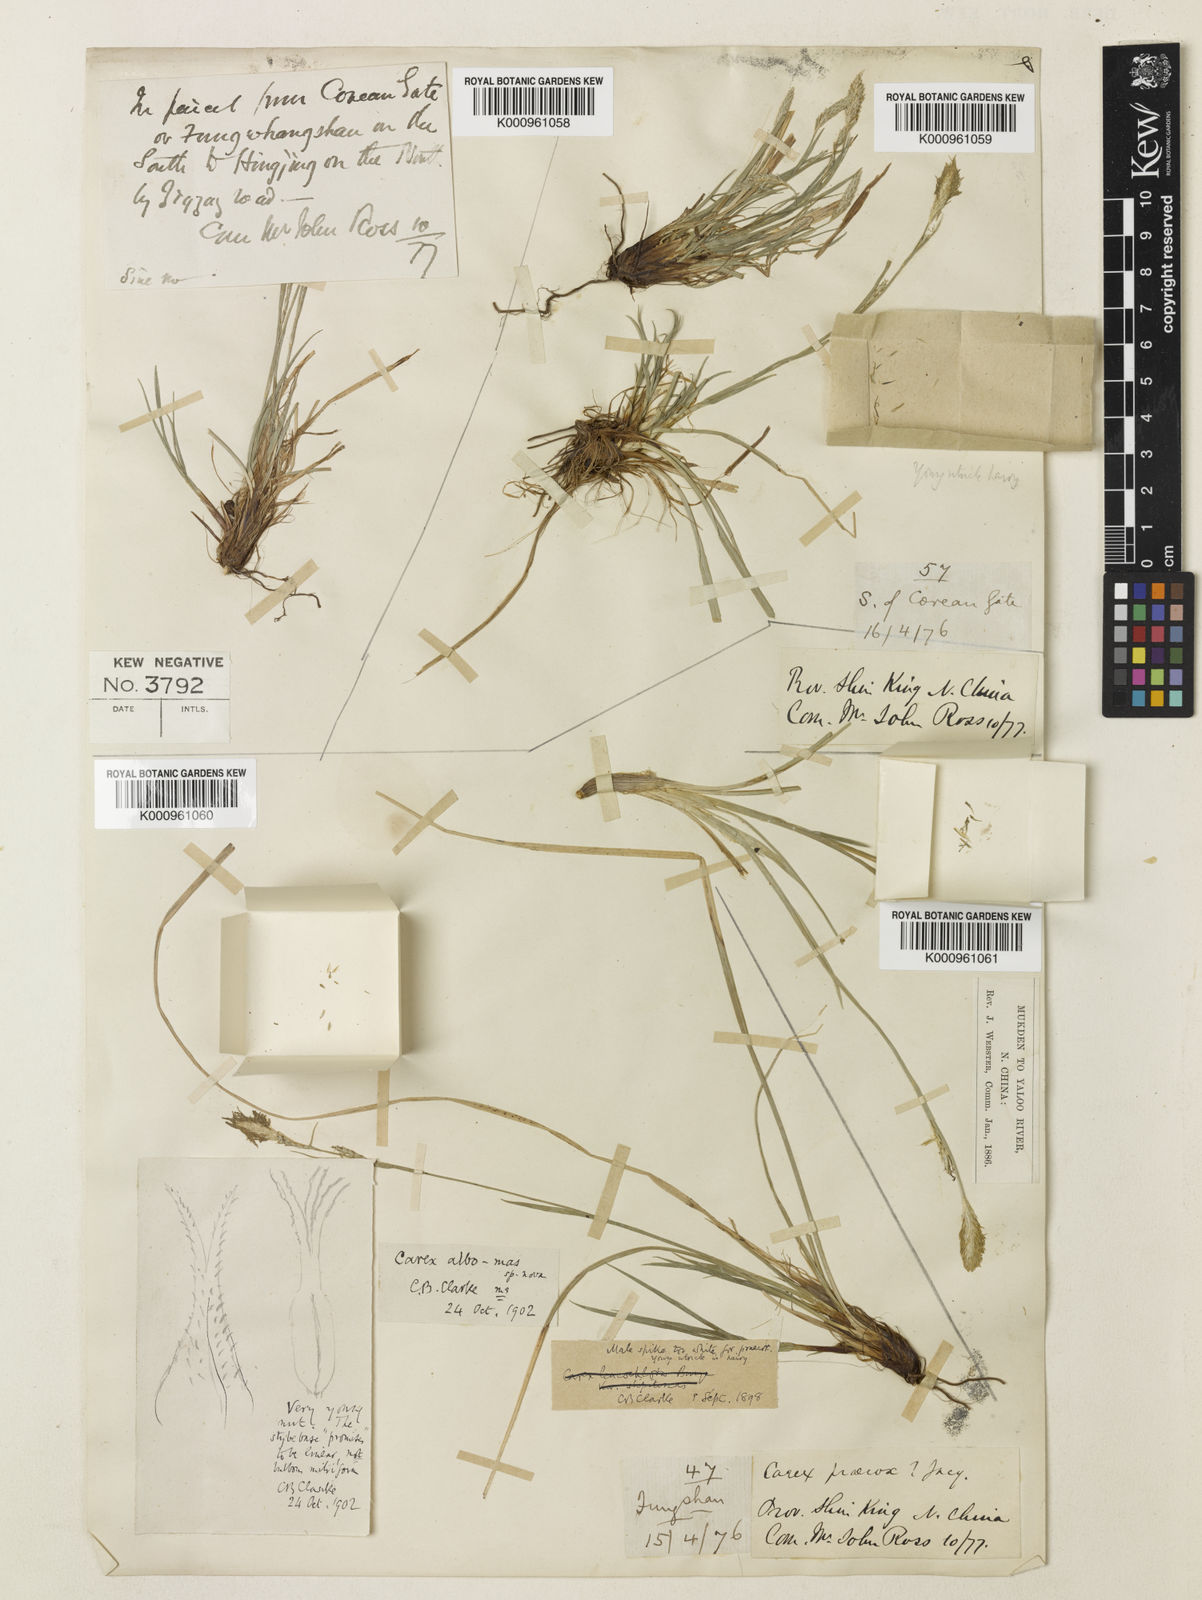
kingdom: Plantae
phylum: Tracheophyta
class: Liliopsida
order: Poales
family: Cyperaceae
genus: Carex
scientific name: Carex pisiformis
